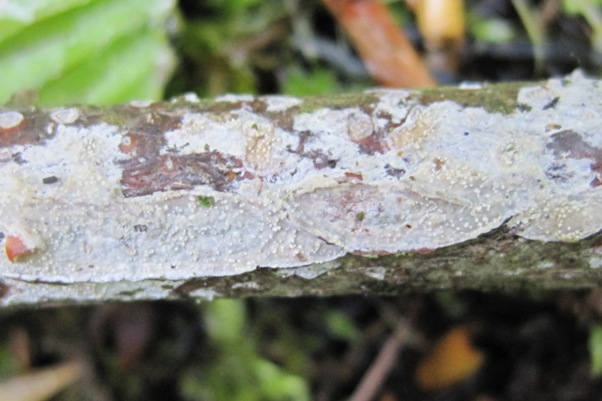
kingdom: Fungi
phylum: Basidiomycota
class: Tremellomycetes
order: Tremellales
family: Exidiaceae
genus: Exidiopsis
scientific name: Exidiopsis effusa
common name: smuk bævrehinde
